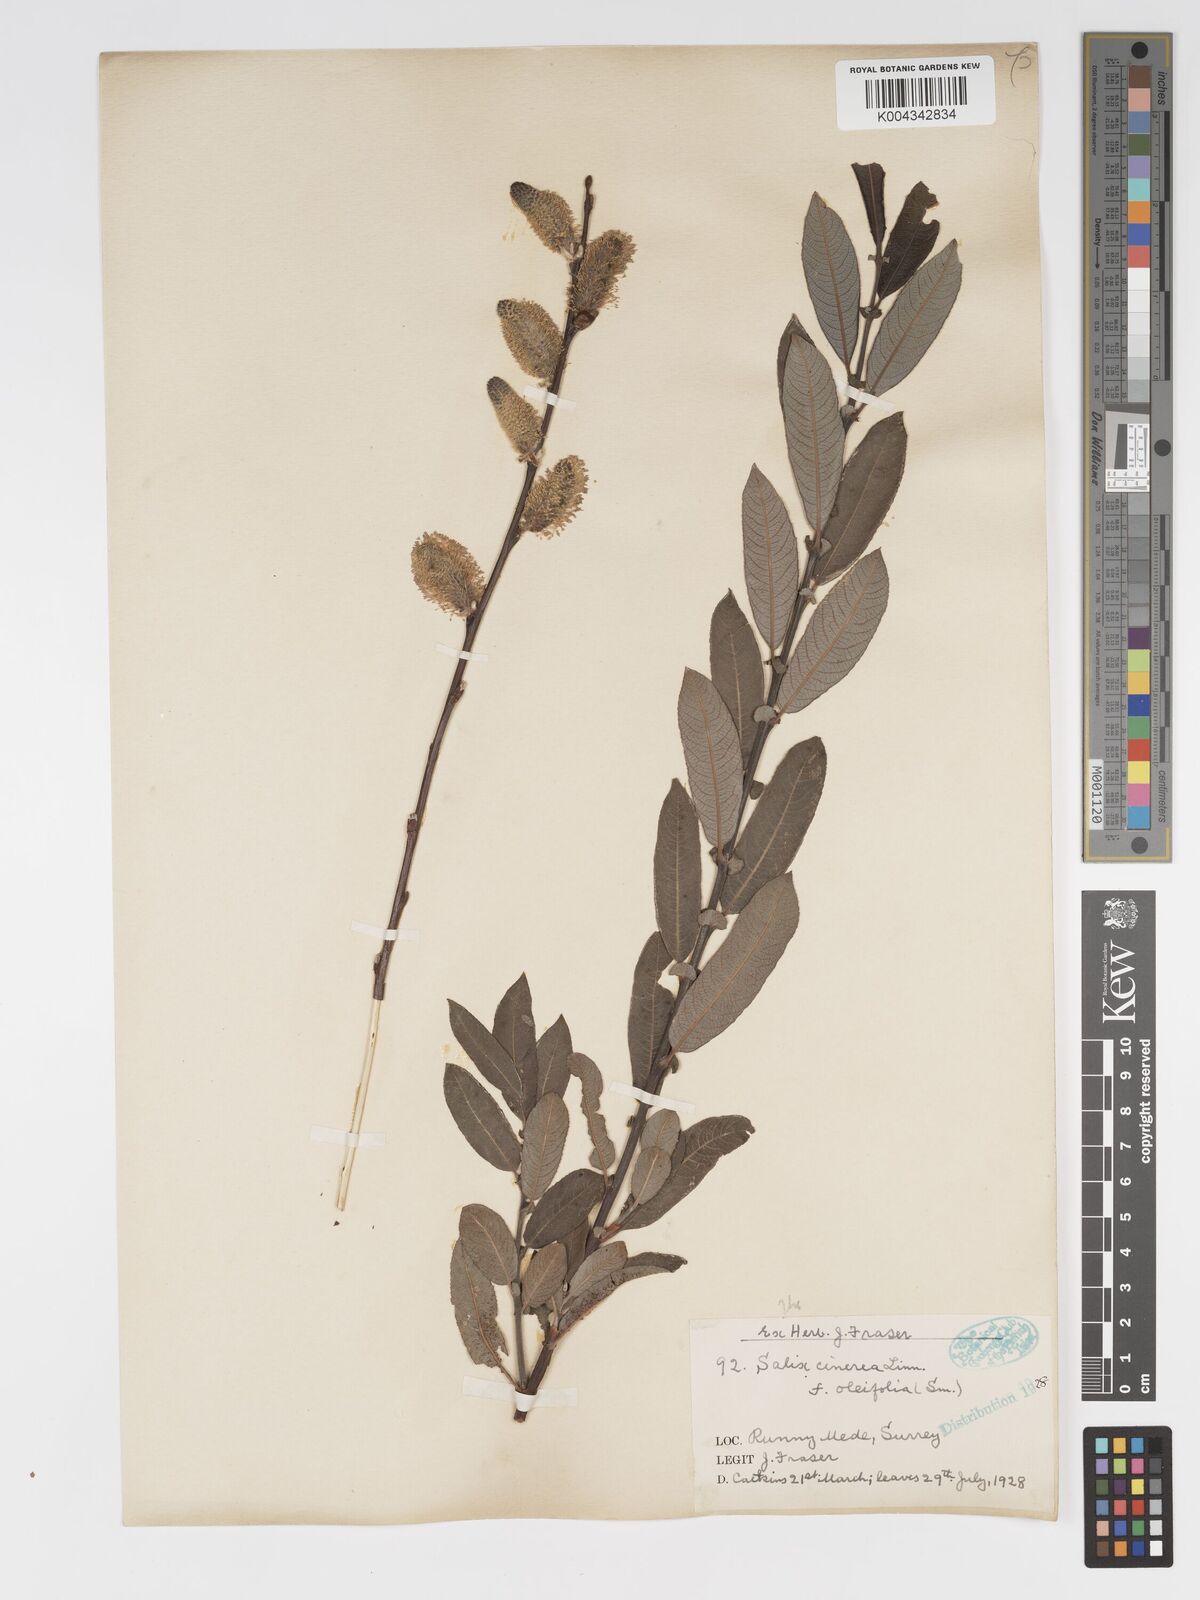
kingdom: Plantae
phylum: Tracheophyta
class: Magnoliopsida
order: Malpighiales
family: Salicaceae
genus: Salix
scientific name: Salix atrocinerea
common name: Rusty willow
